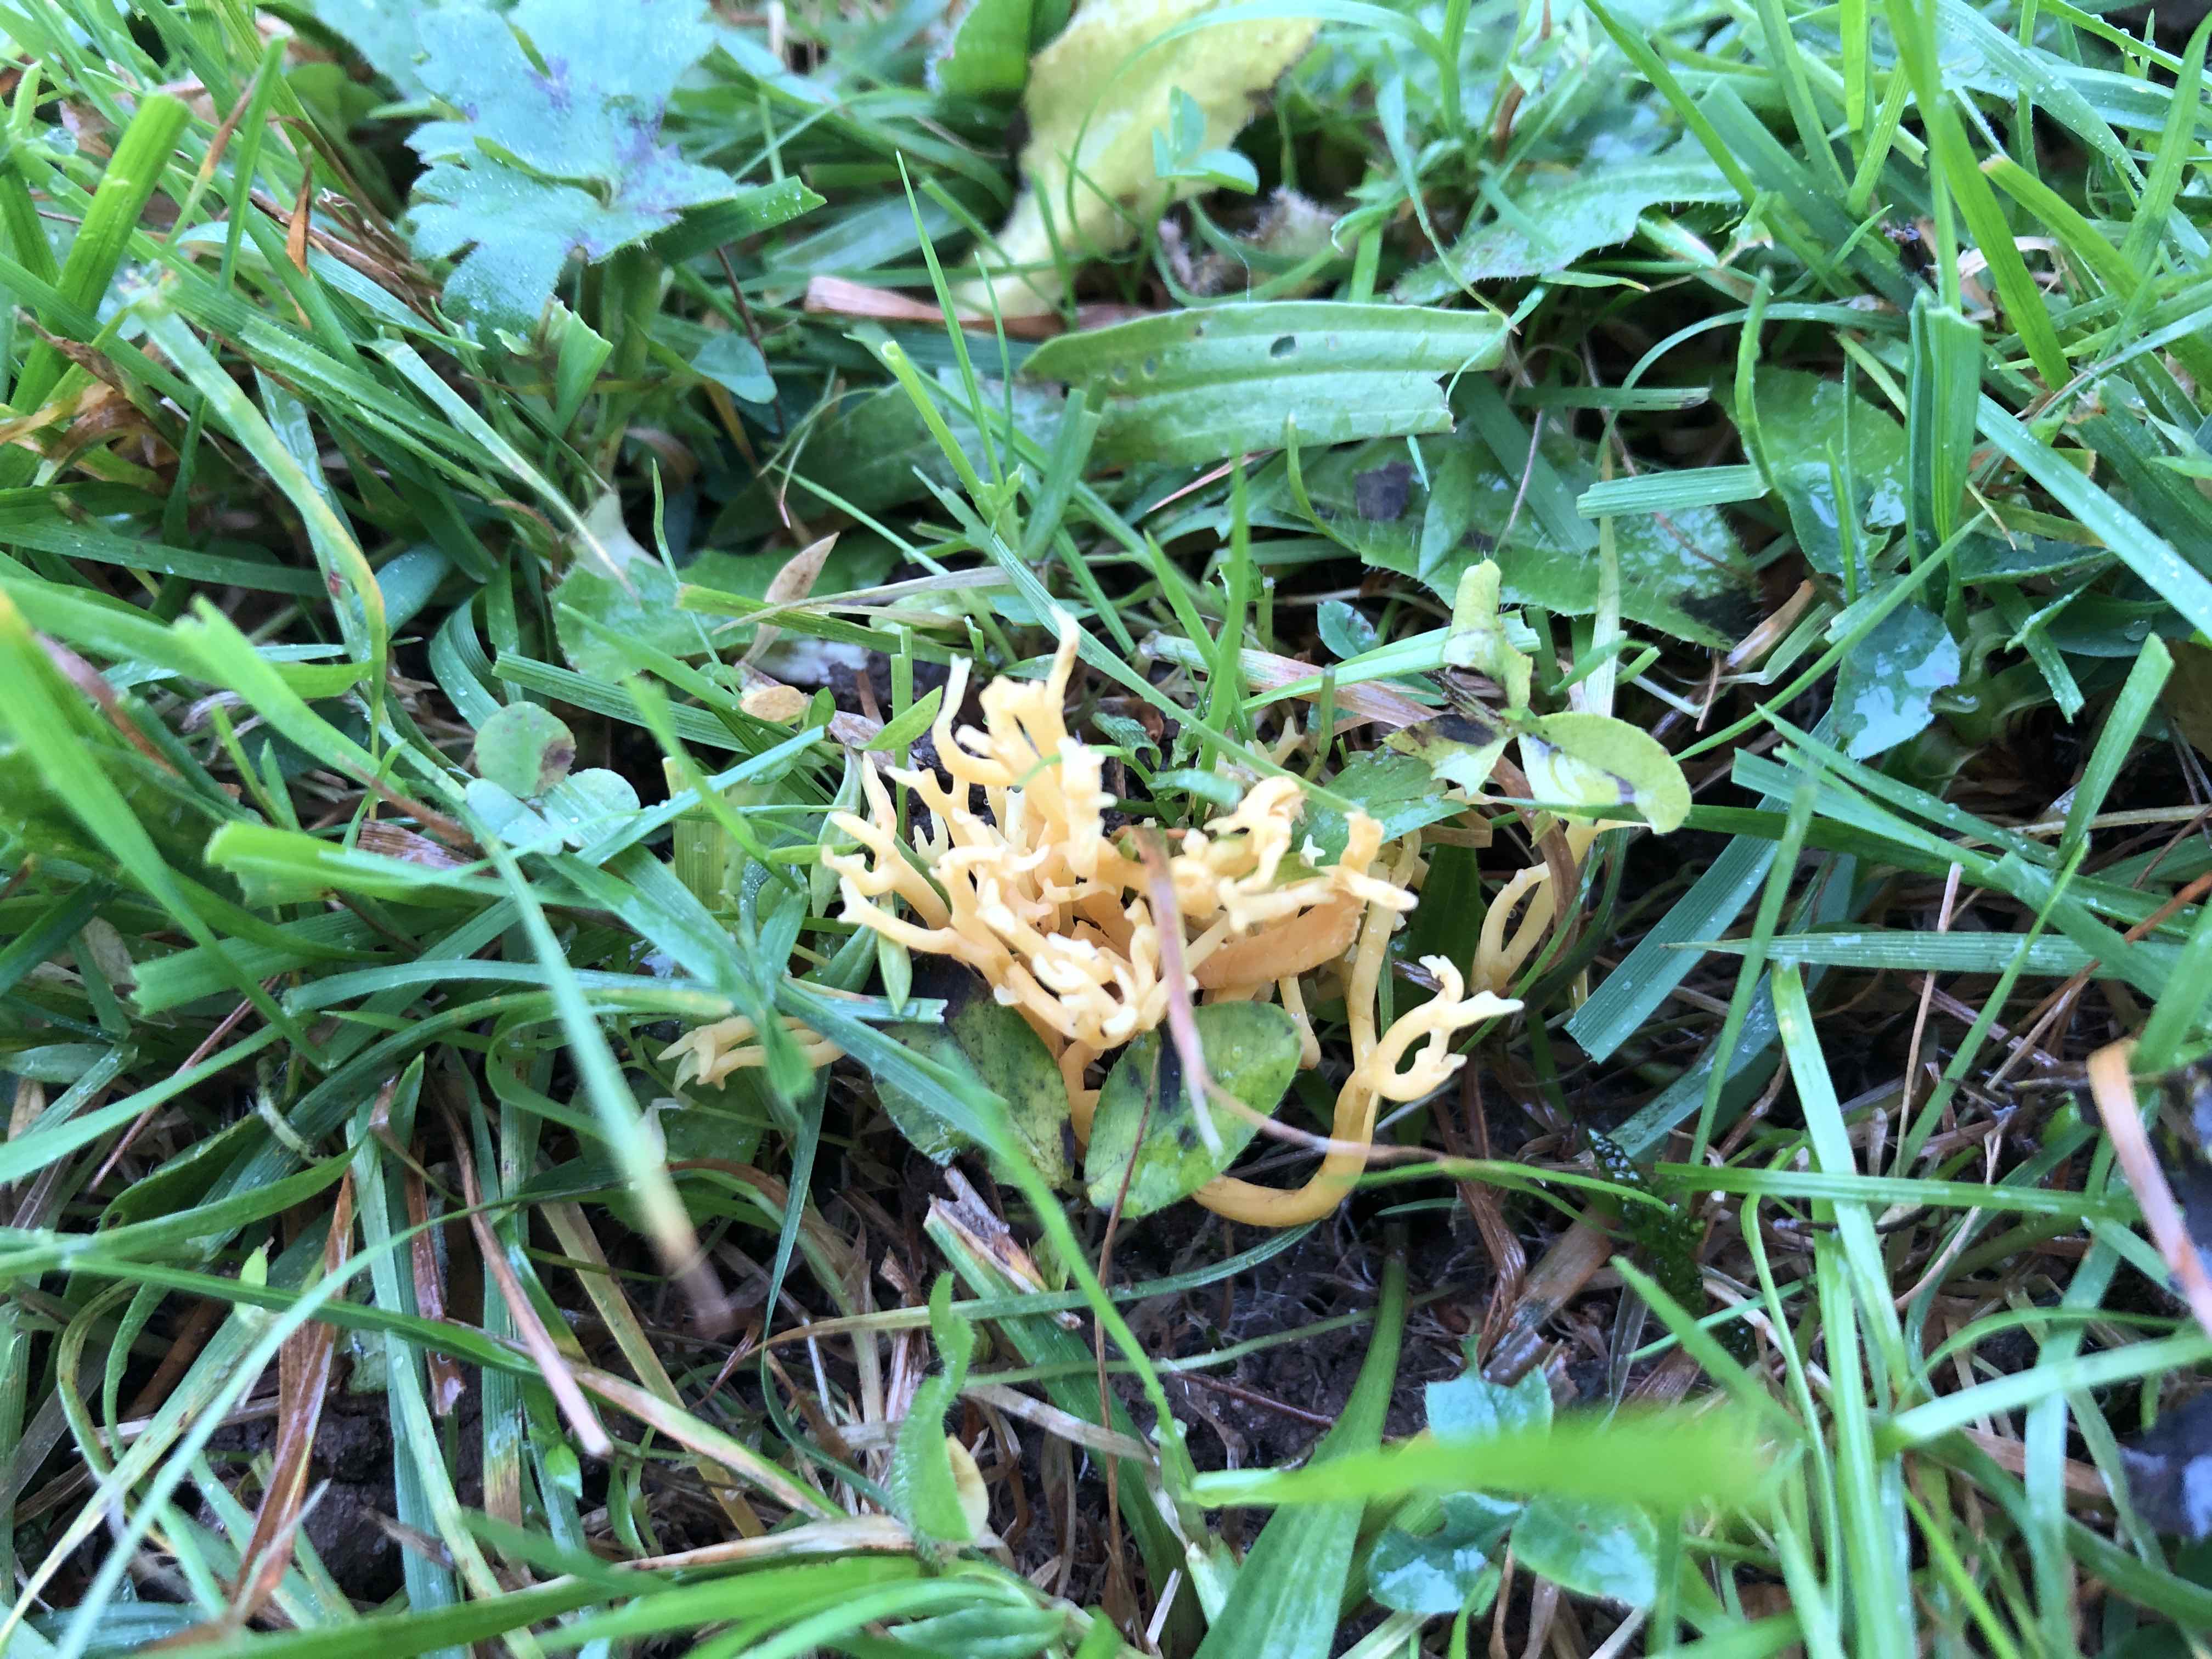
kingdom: Fungi
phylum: Basidiomycota
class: Agaricomycetes
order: Agaricales
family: Clavariaceae
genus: Clavulinopsis
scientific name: Clavulinopsis corniculata
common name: eng-køllesvamp
